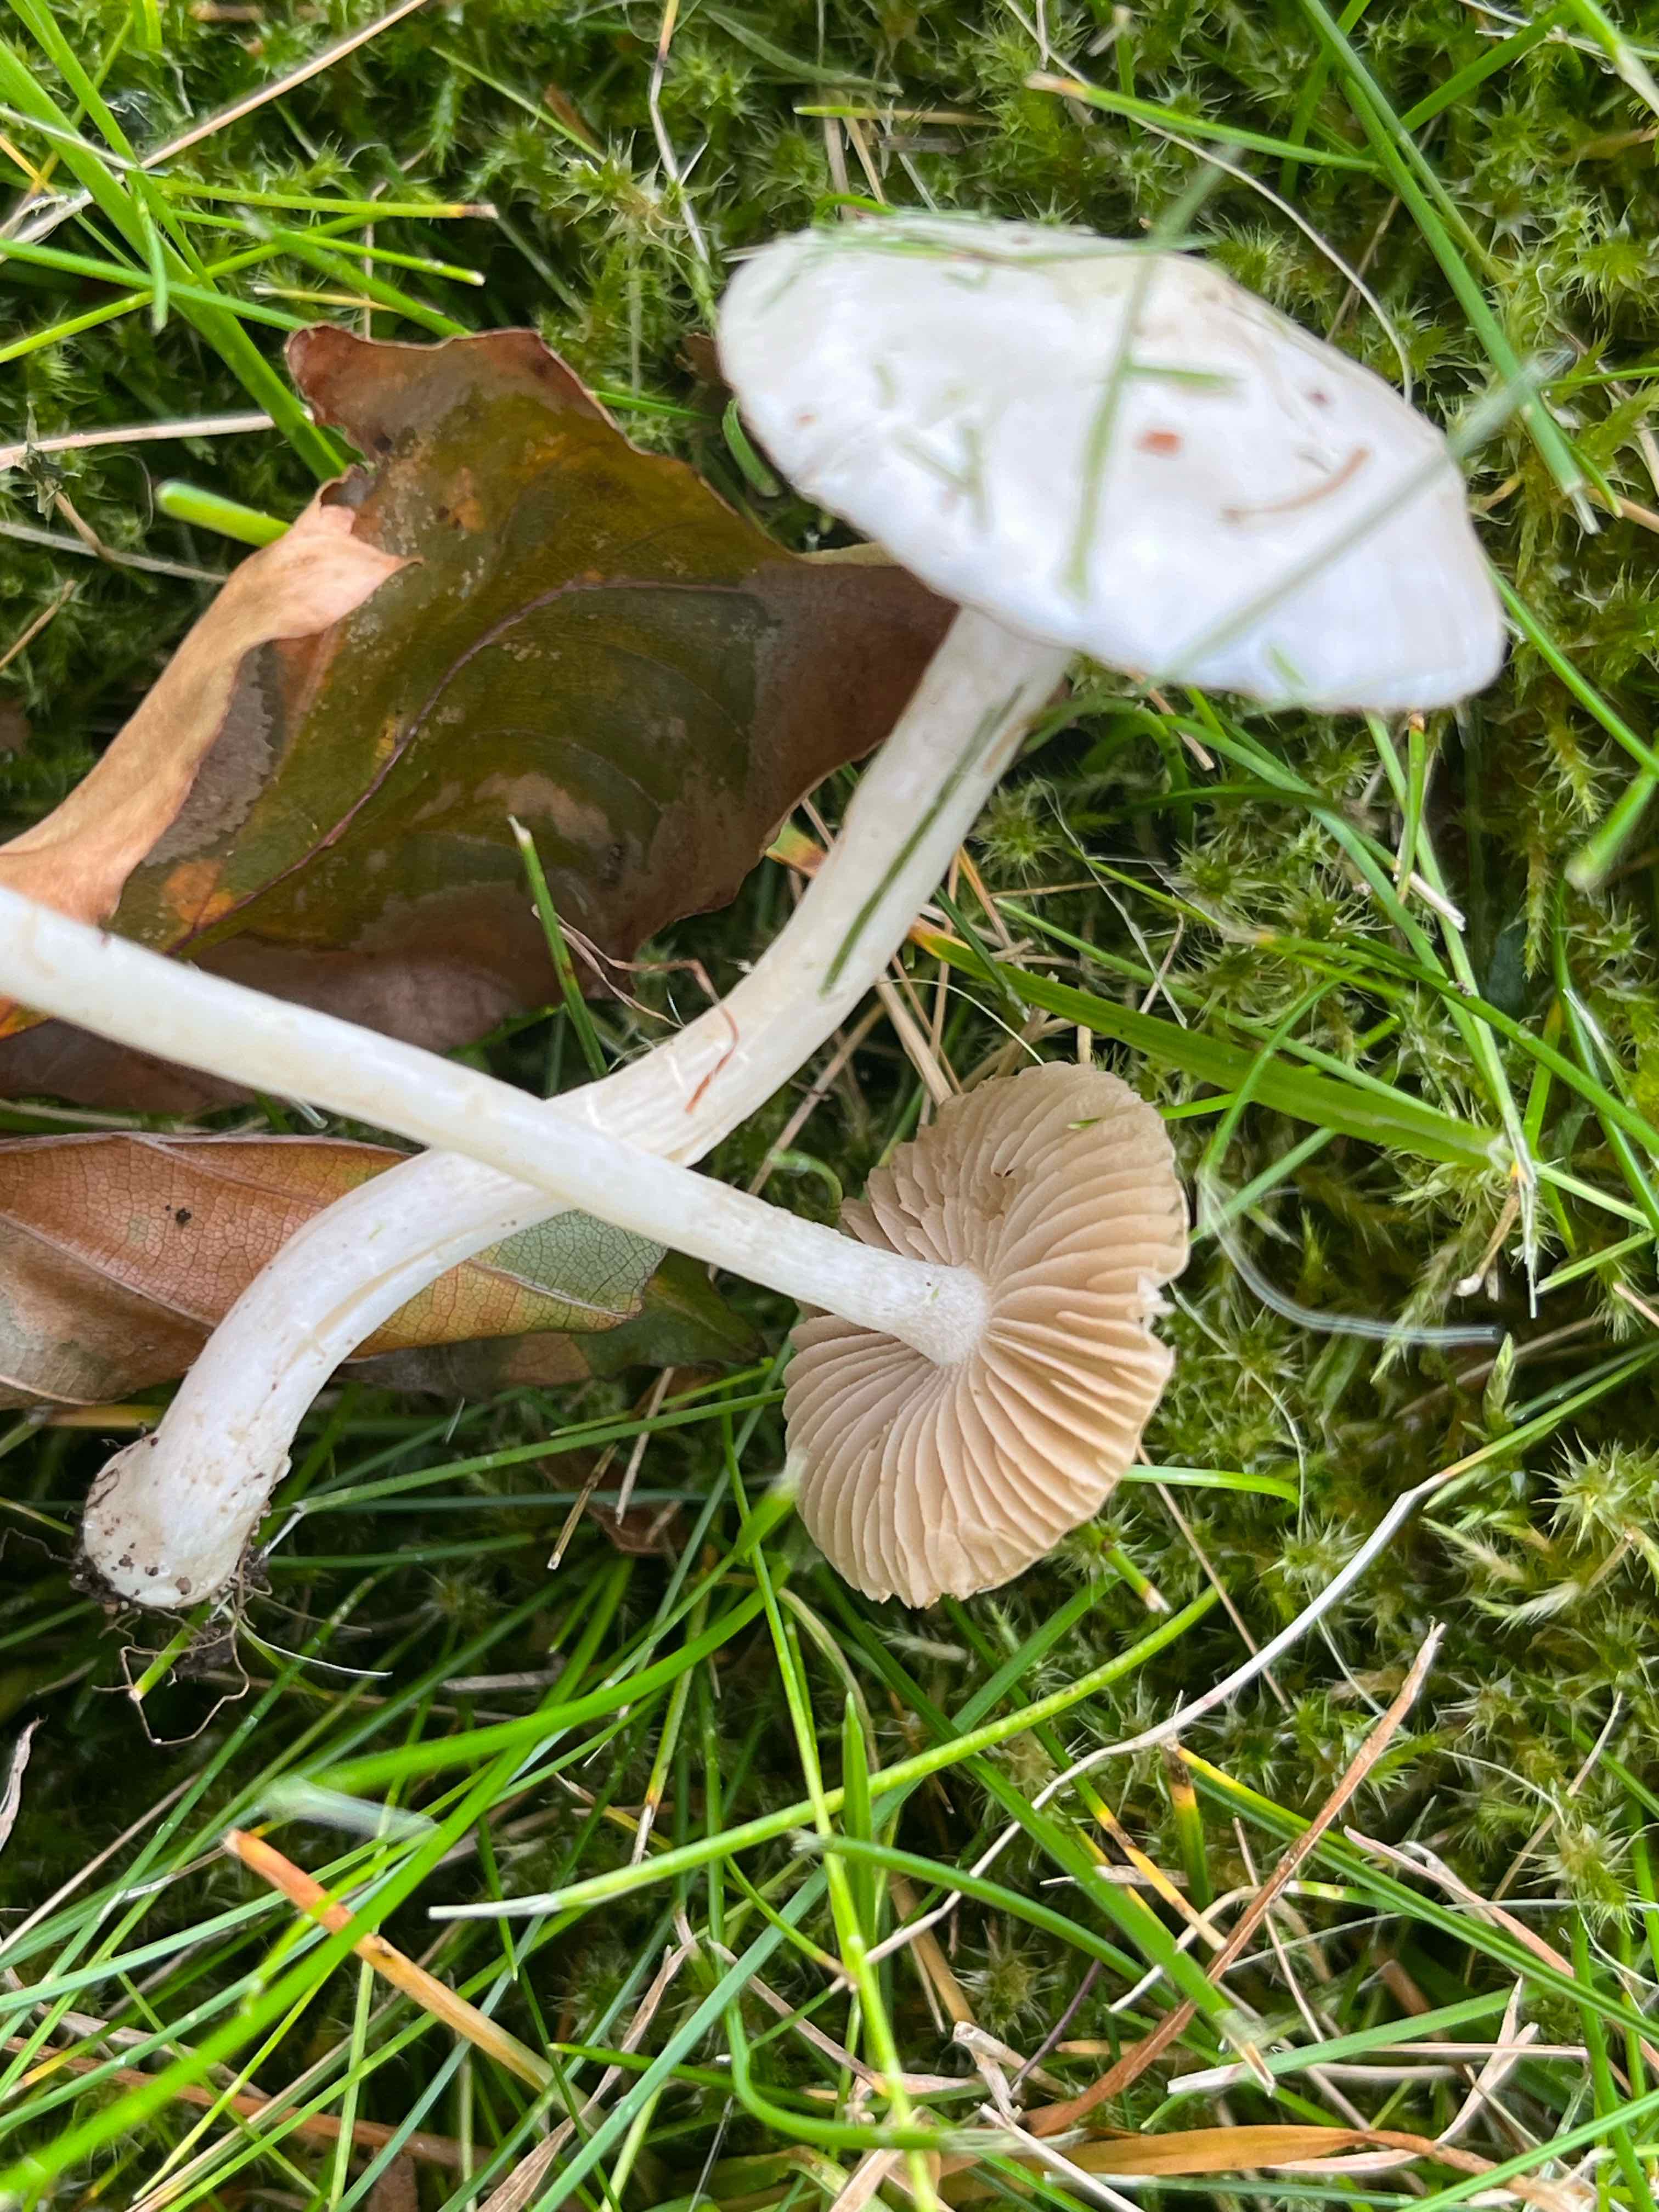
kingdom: Fungi
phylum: Basidiomycota
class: Agaricomycetes
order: Agaricales
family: Inocybaceae
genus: Inocybe
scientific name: Inocybe
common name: almindelig trævlhat
